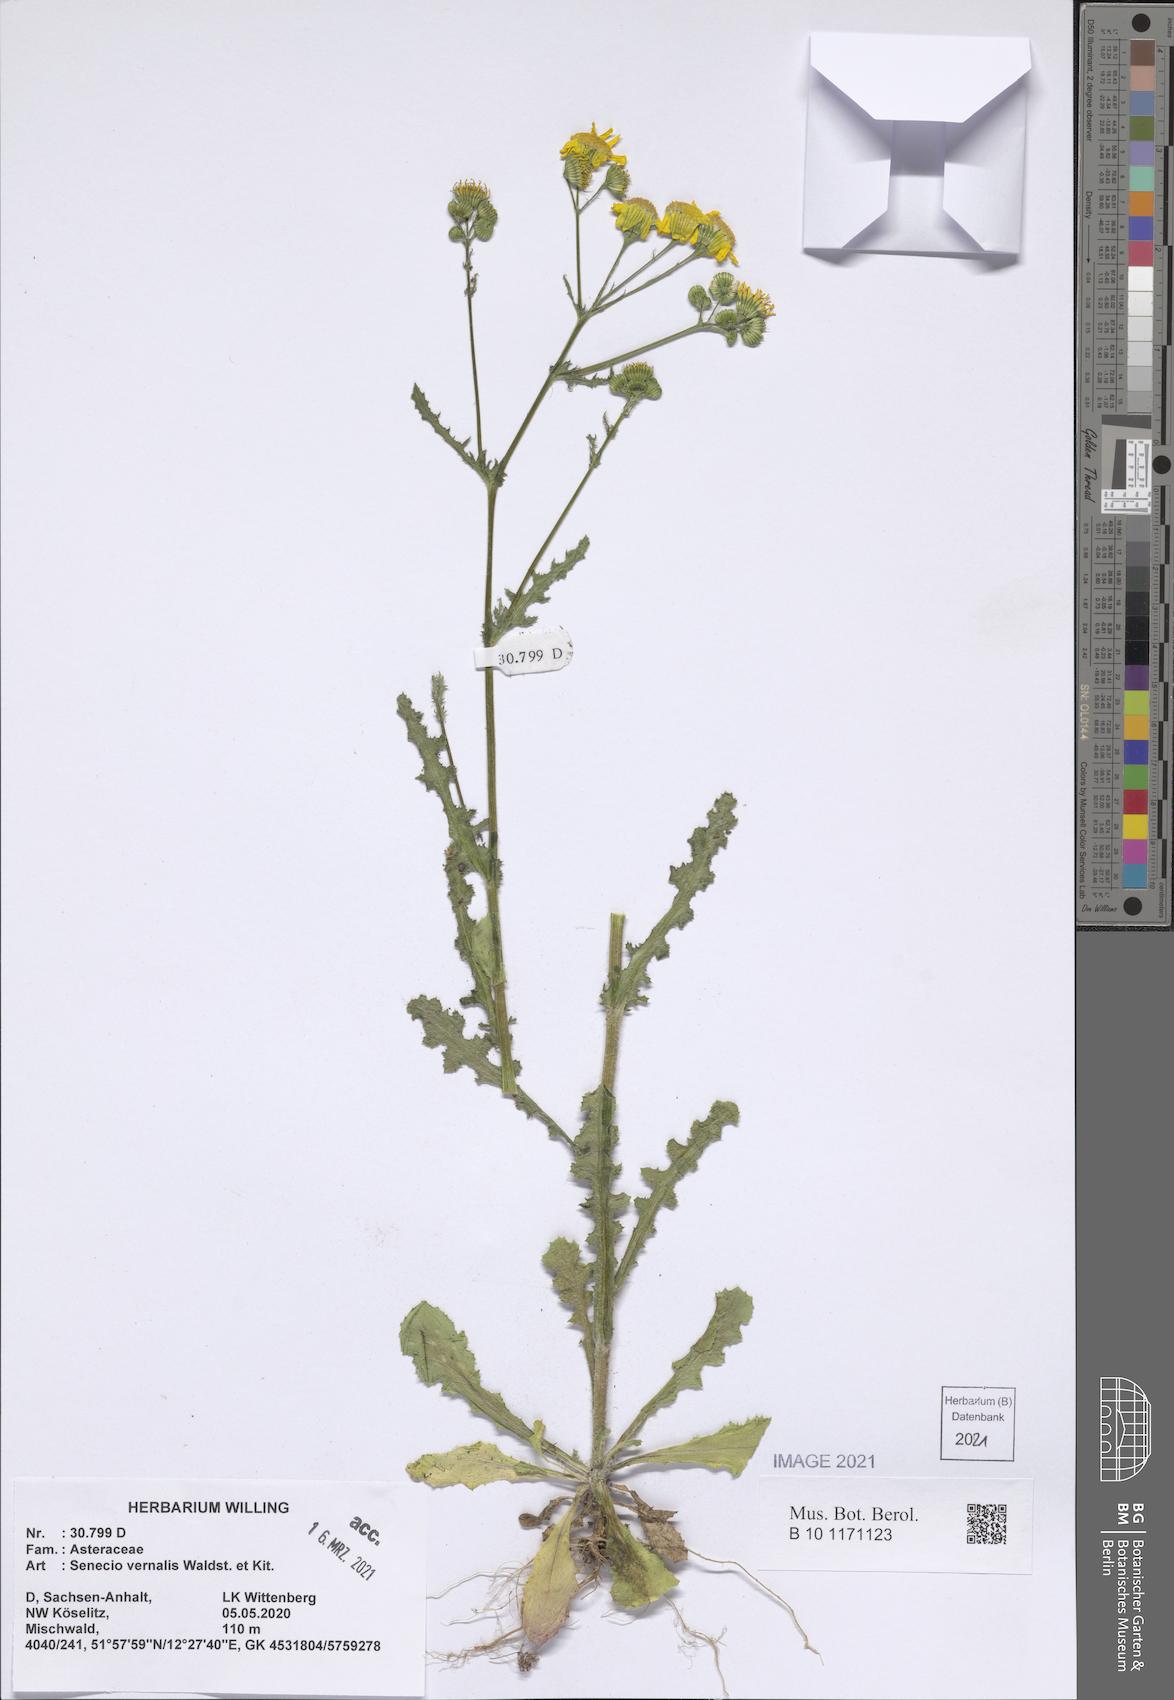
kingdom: Plantae
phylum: Tracheophyta
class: Magnoliopsida
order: Asterales
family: Asteraceae
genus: Senecio
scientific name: Senecio vernalis
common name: Eastern groundsel
